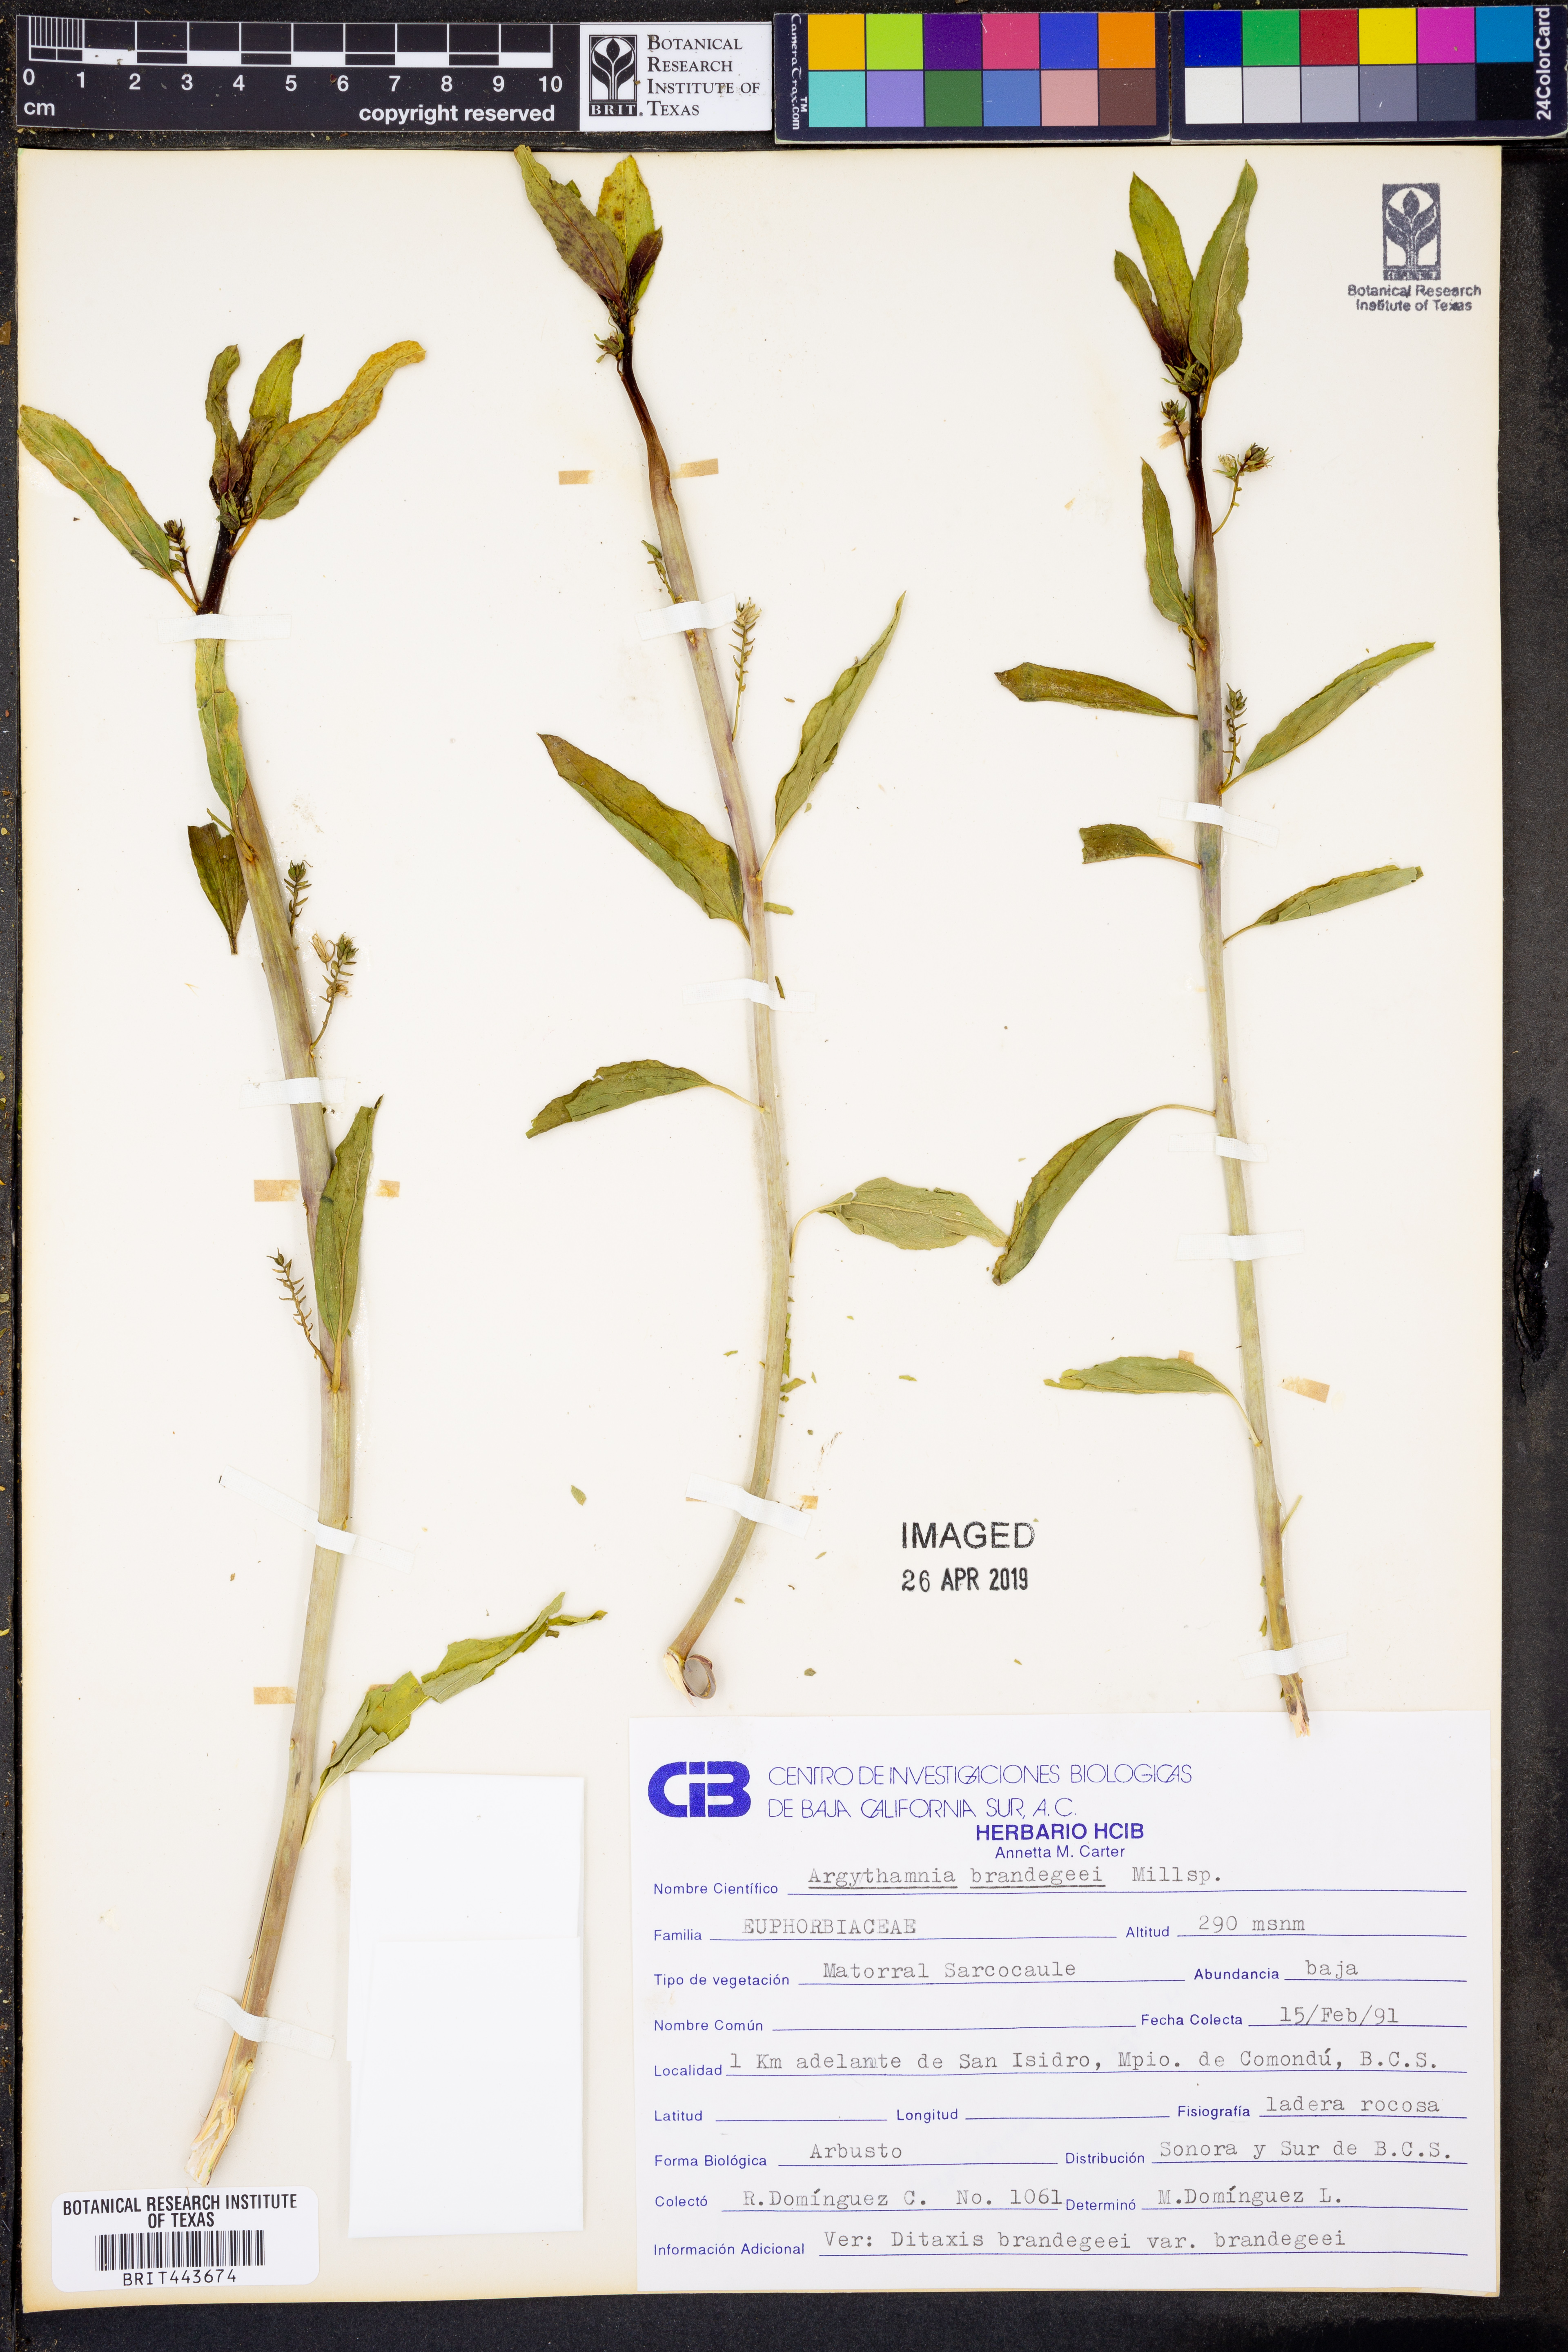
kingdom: Plantae
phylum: Tracheophyta
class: Magnoliopsida
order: Malpighiales
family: Euphorbiaceae
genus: Ditaxis
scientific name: Ditaxis brandegeei
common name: Sonoran silverbush
